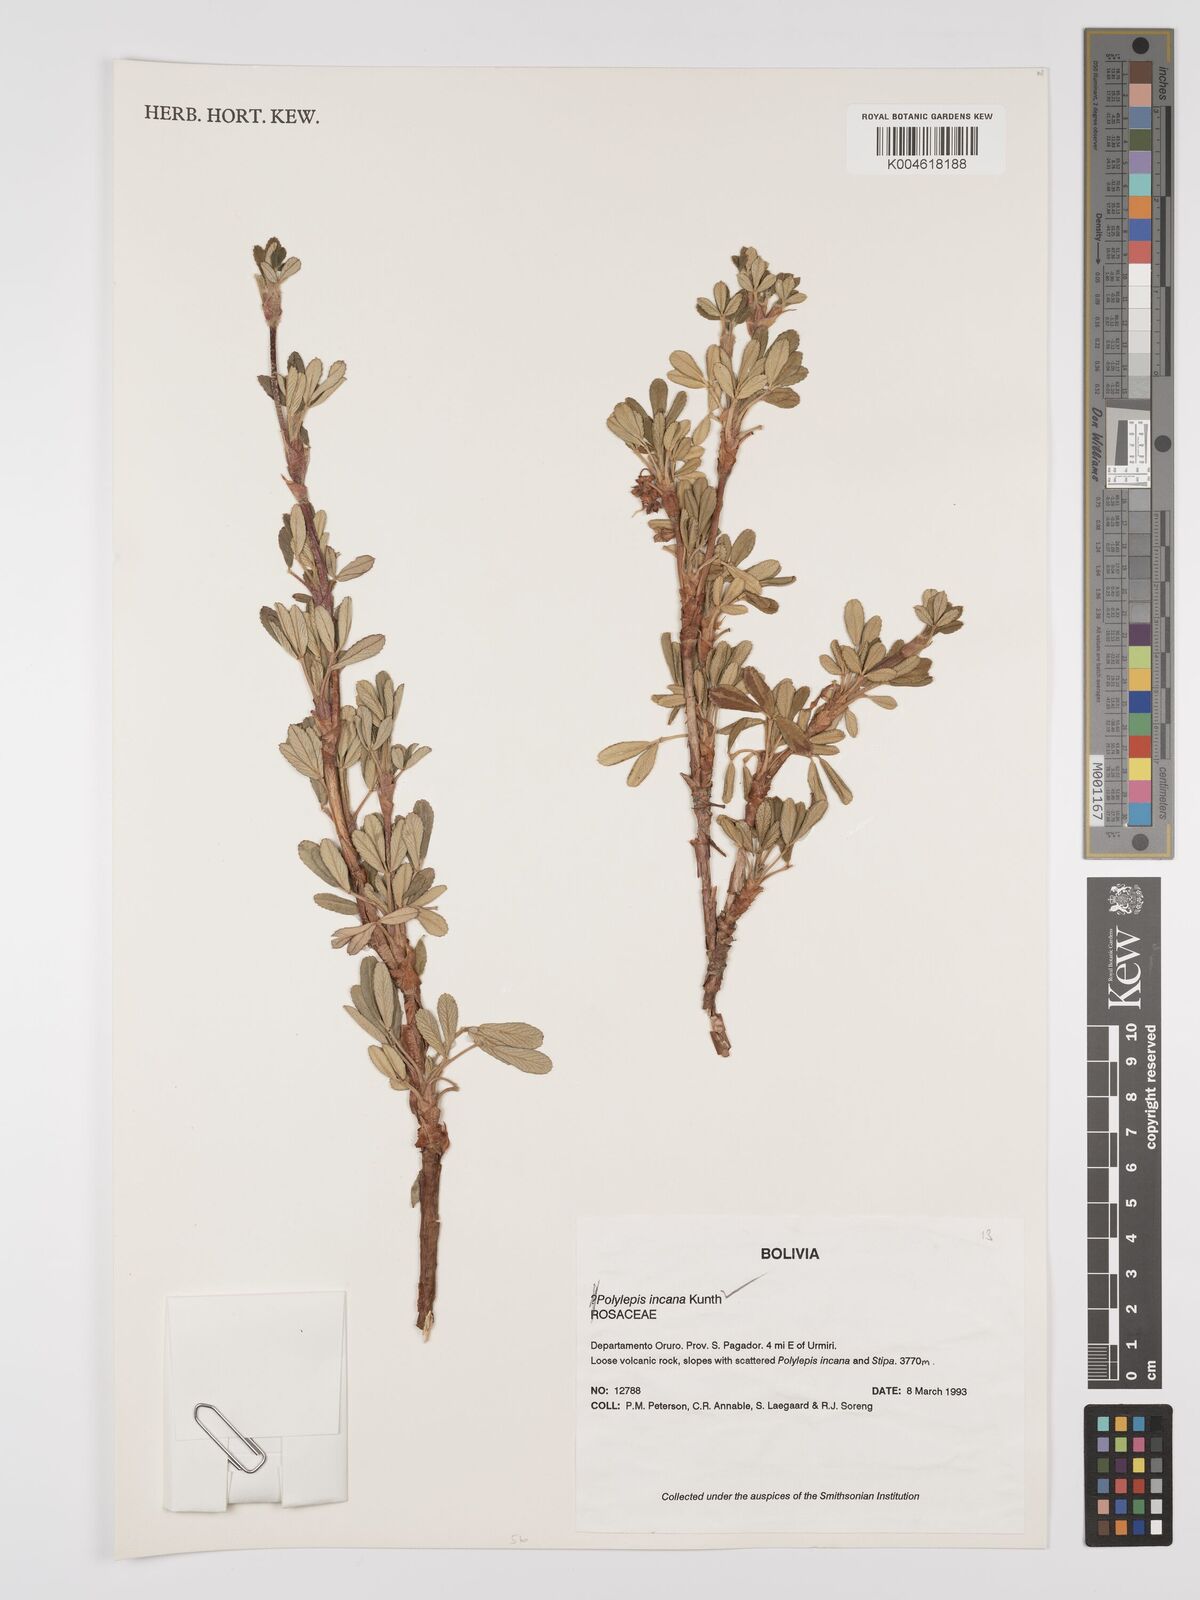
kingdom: Plantae
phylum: Tracheophyta
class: Magnoliopsida
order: Rosales
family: Rosaceae
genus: Polylepis
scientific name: Polylepis incana
